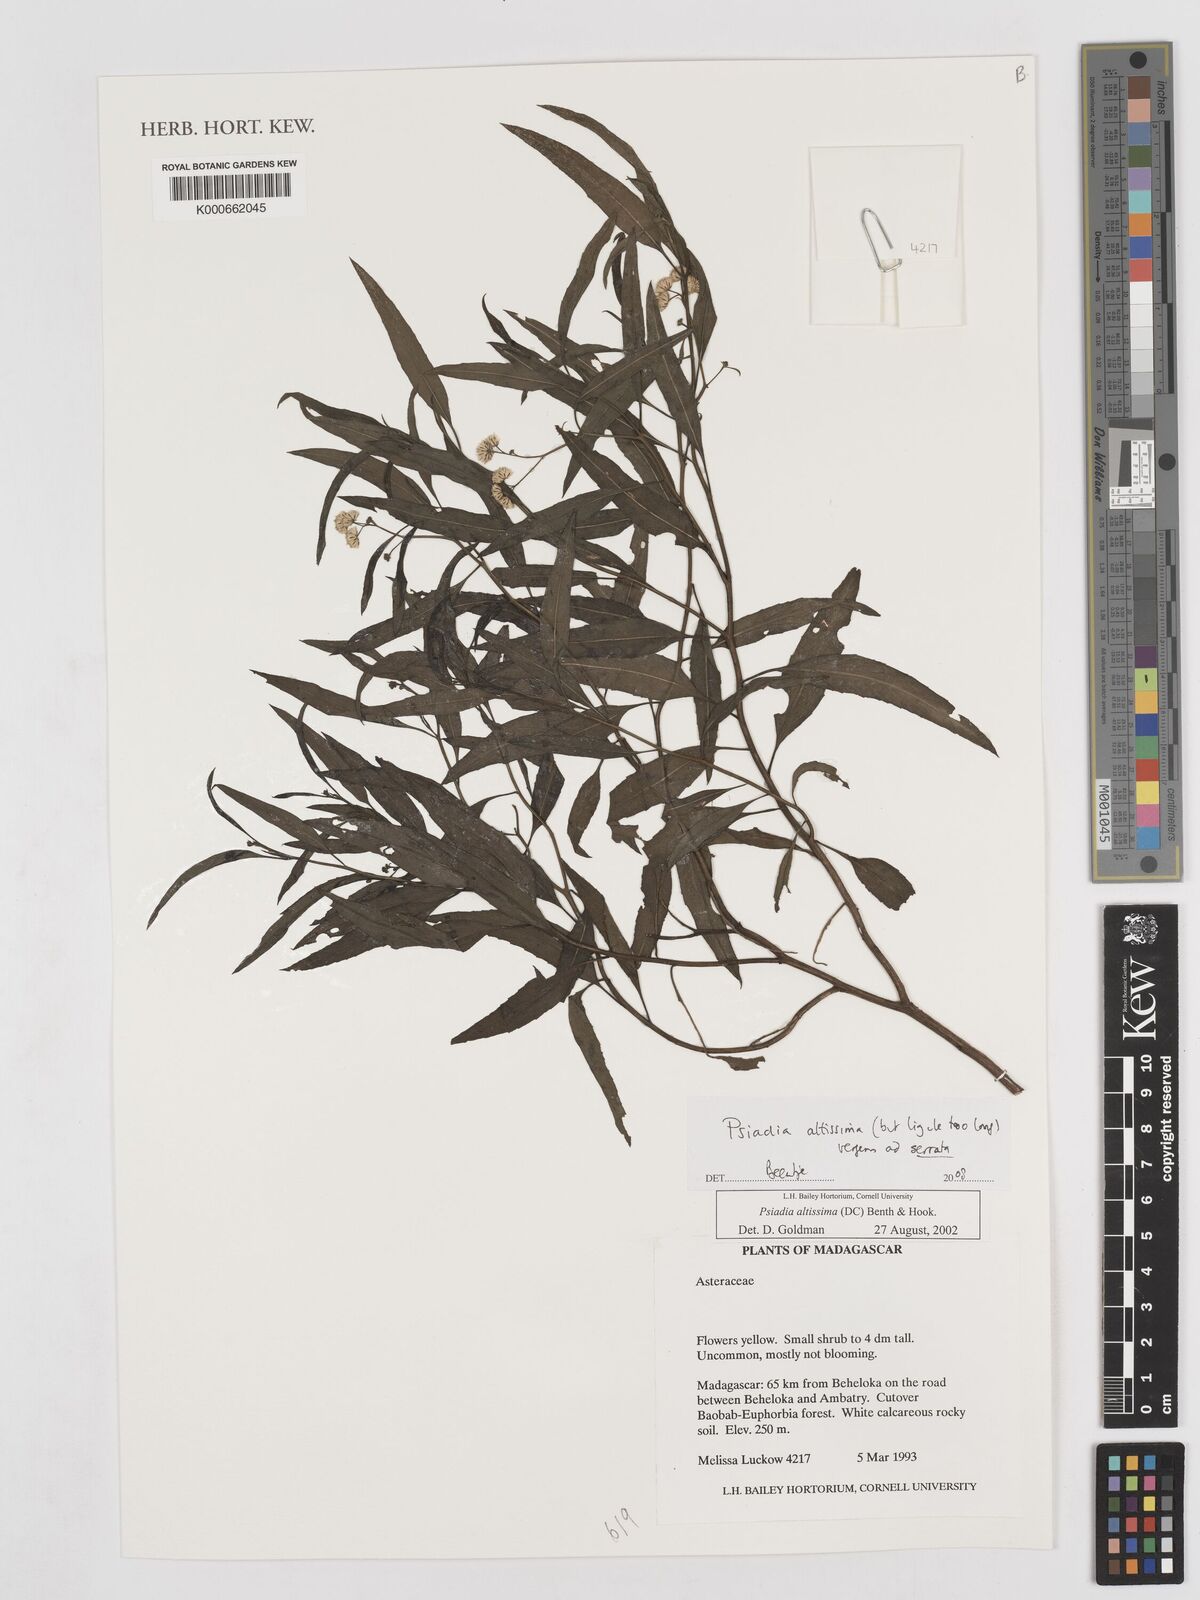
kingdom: Plantae
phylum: Tracheophyta
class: Magnoliopsida
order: Asterales
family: Asteraceae
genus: Psiadia
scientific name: Psiadia altissima
